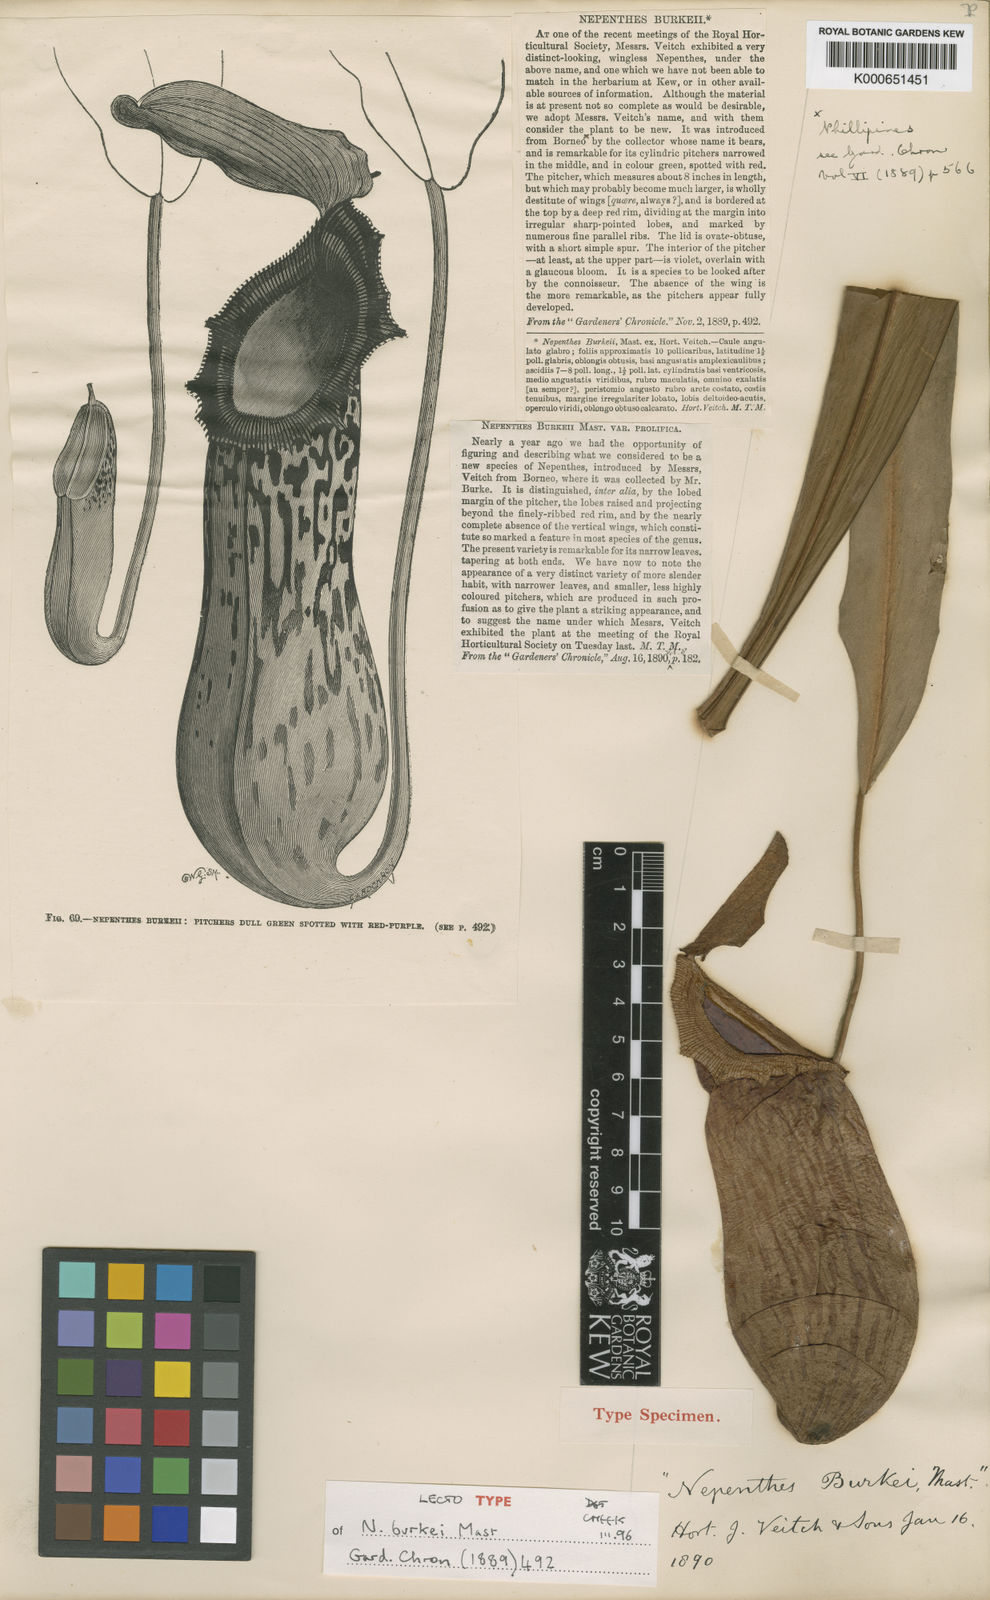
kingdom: Plantae
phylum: Tracheophyta
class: Magnoliopsida
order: Caryophyllales
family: Nepenthaceae
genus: Nepenthes
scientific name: Nepenthes burkei
